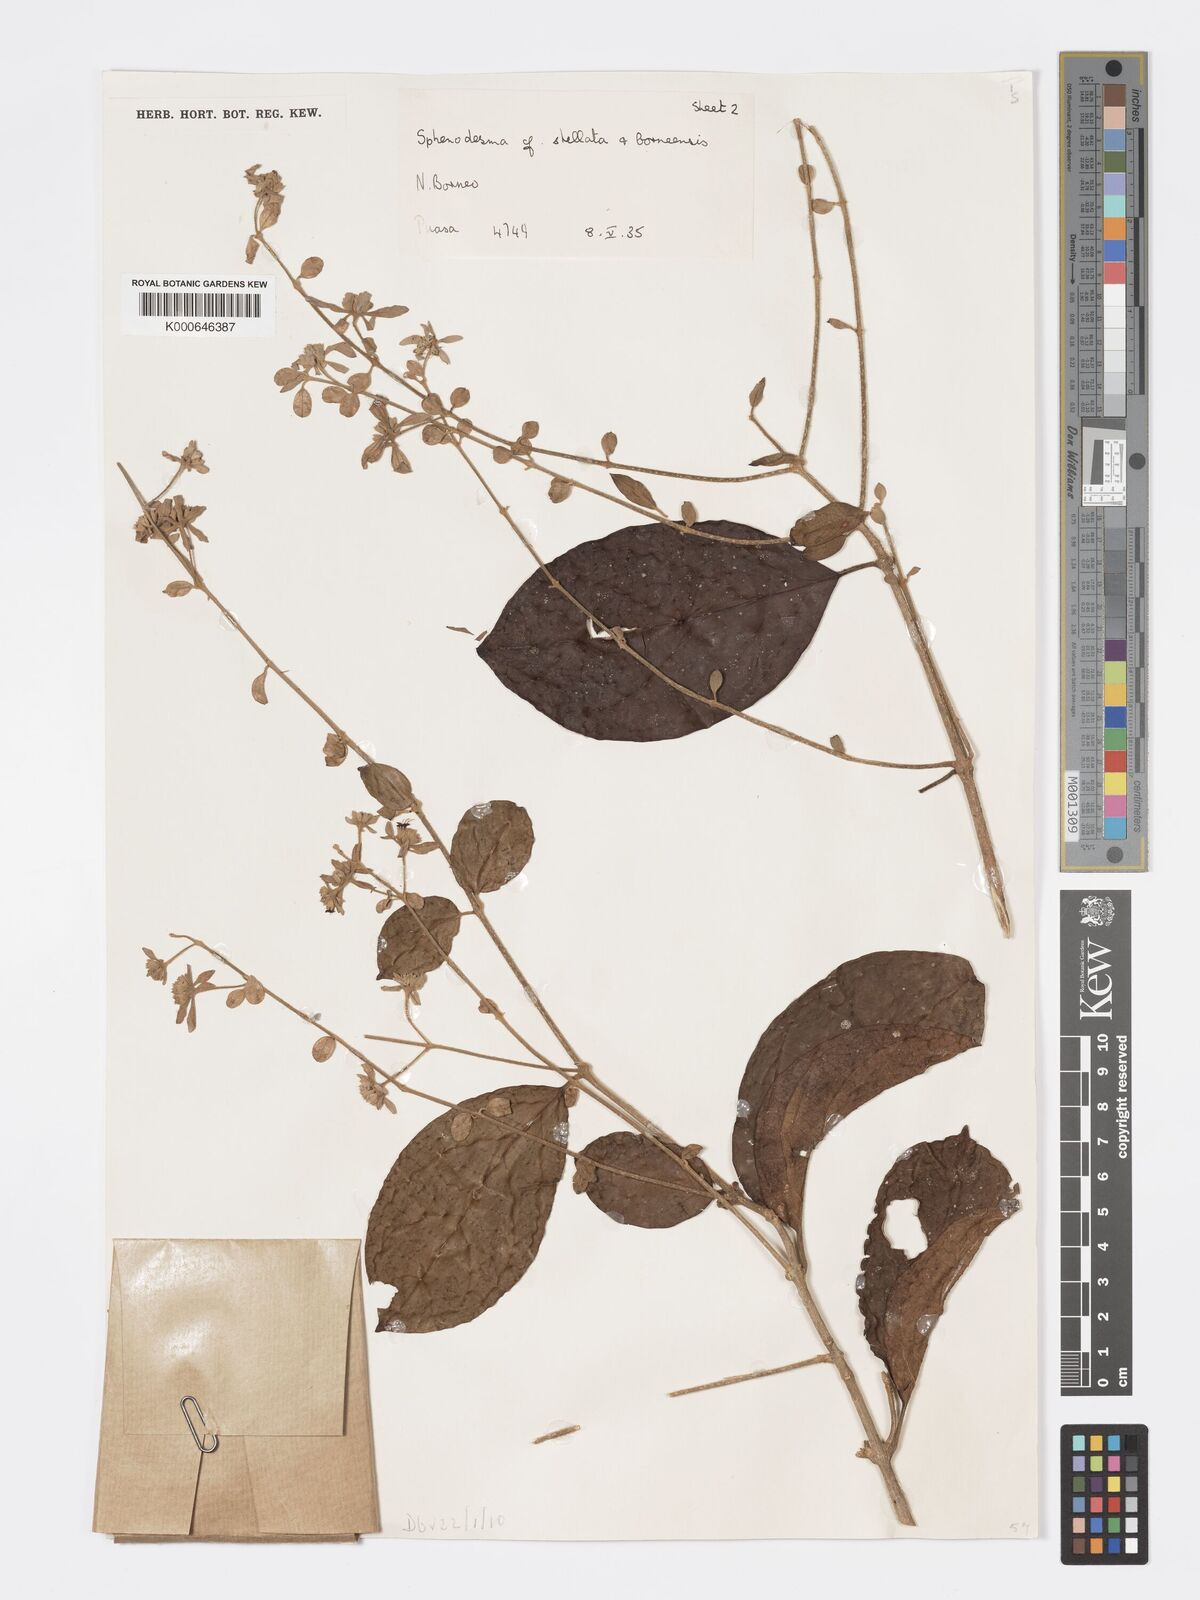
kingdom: Plantae
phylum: Tracheophyta
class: Magnoliopsida
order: Lamiales
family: Lamiaceae
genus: Sphenodesme
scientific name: Sphenodesme stellata
